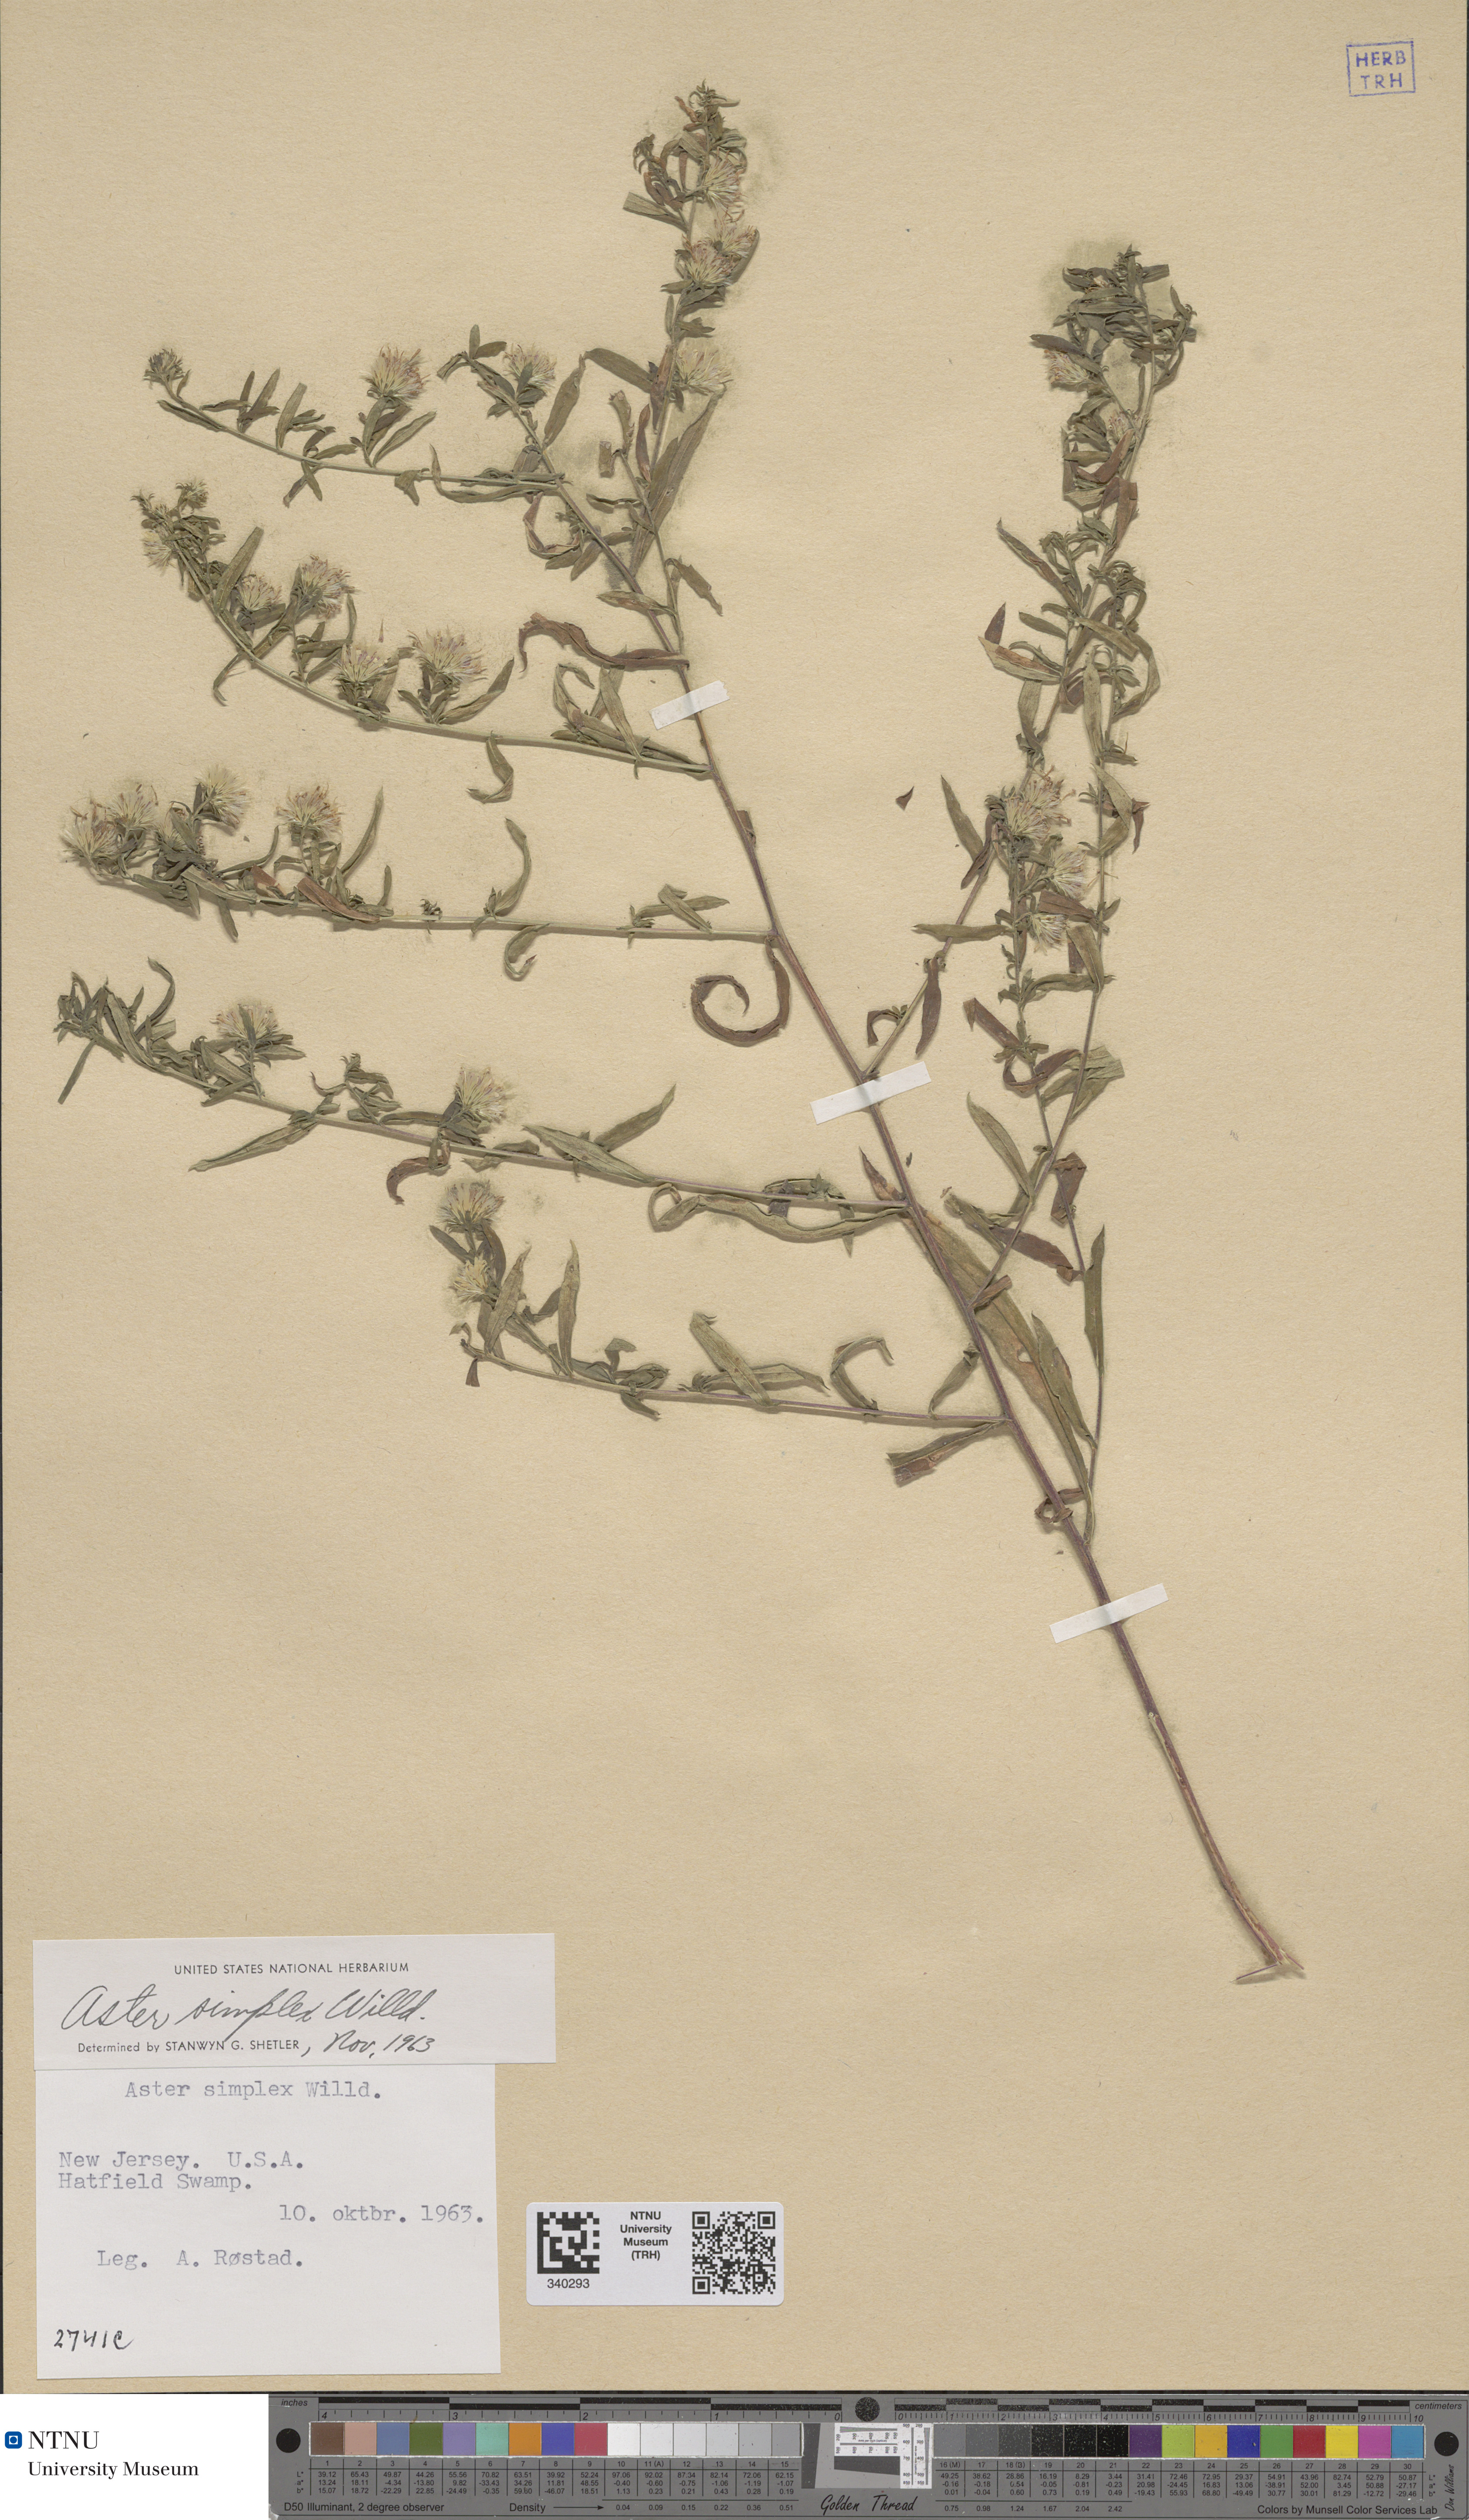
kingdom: Plantae
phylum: Tracheophyta
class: Magnoliopsida
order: Asterales
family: Asteraceae
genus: Symphyotrichum
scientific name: Symphyotrichum lanceolatum
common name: Panicled aster
